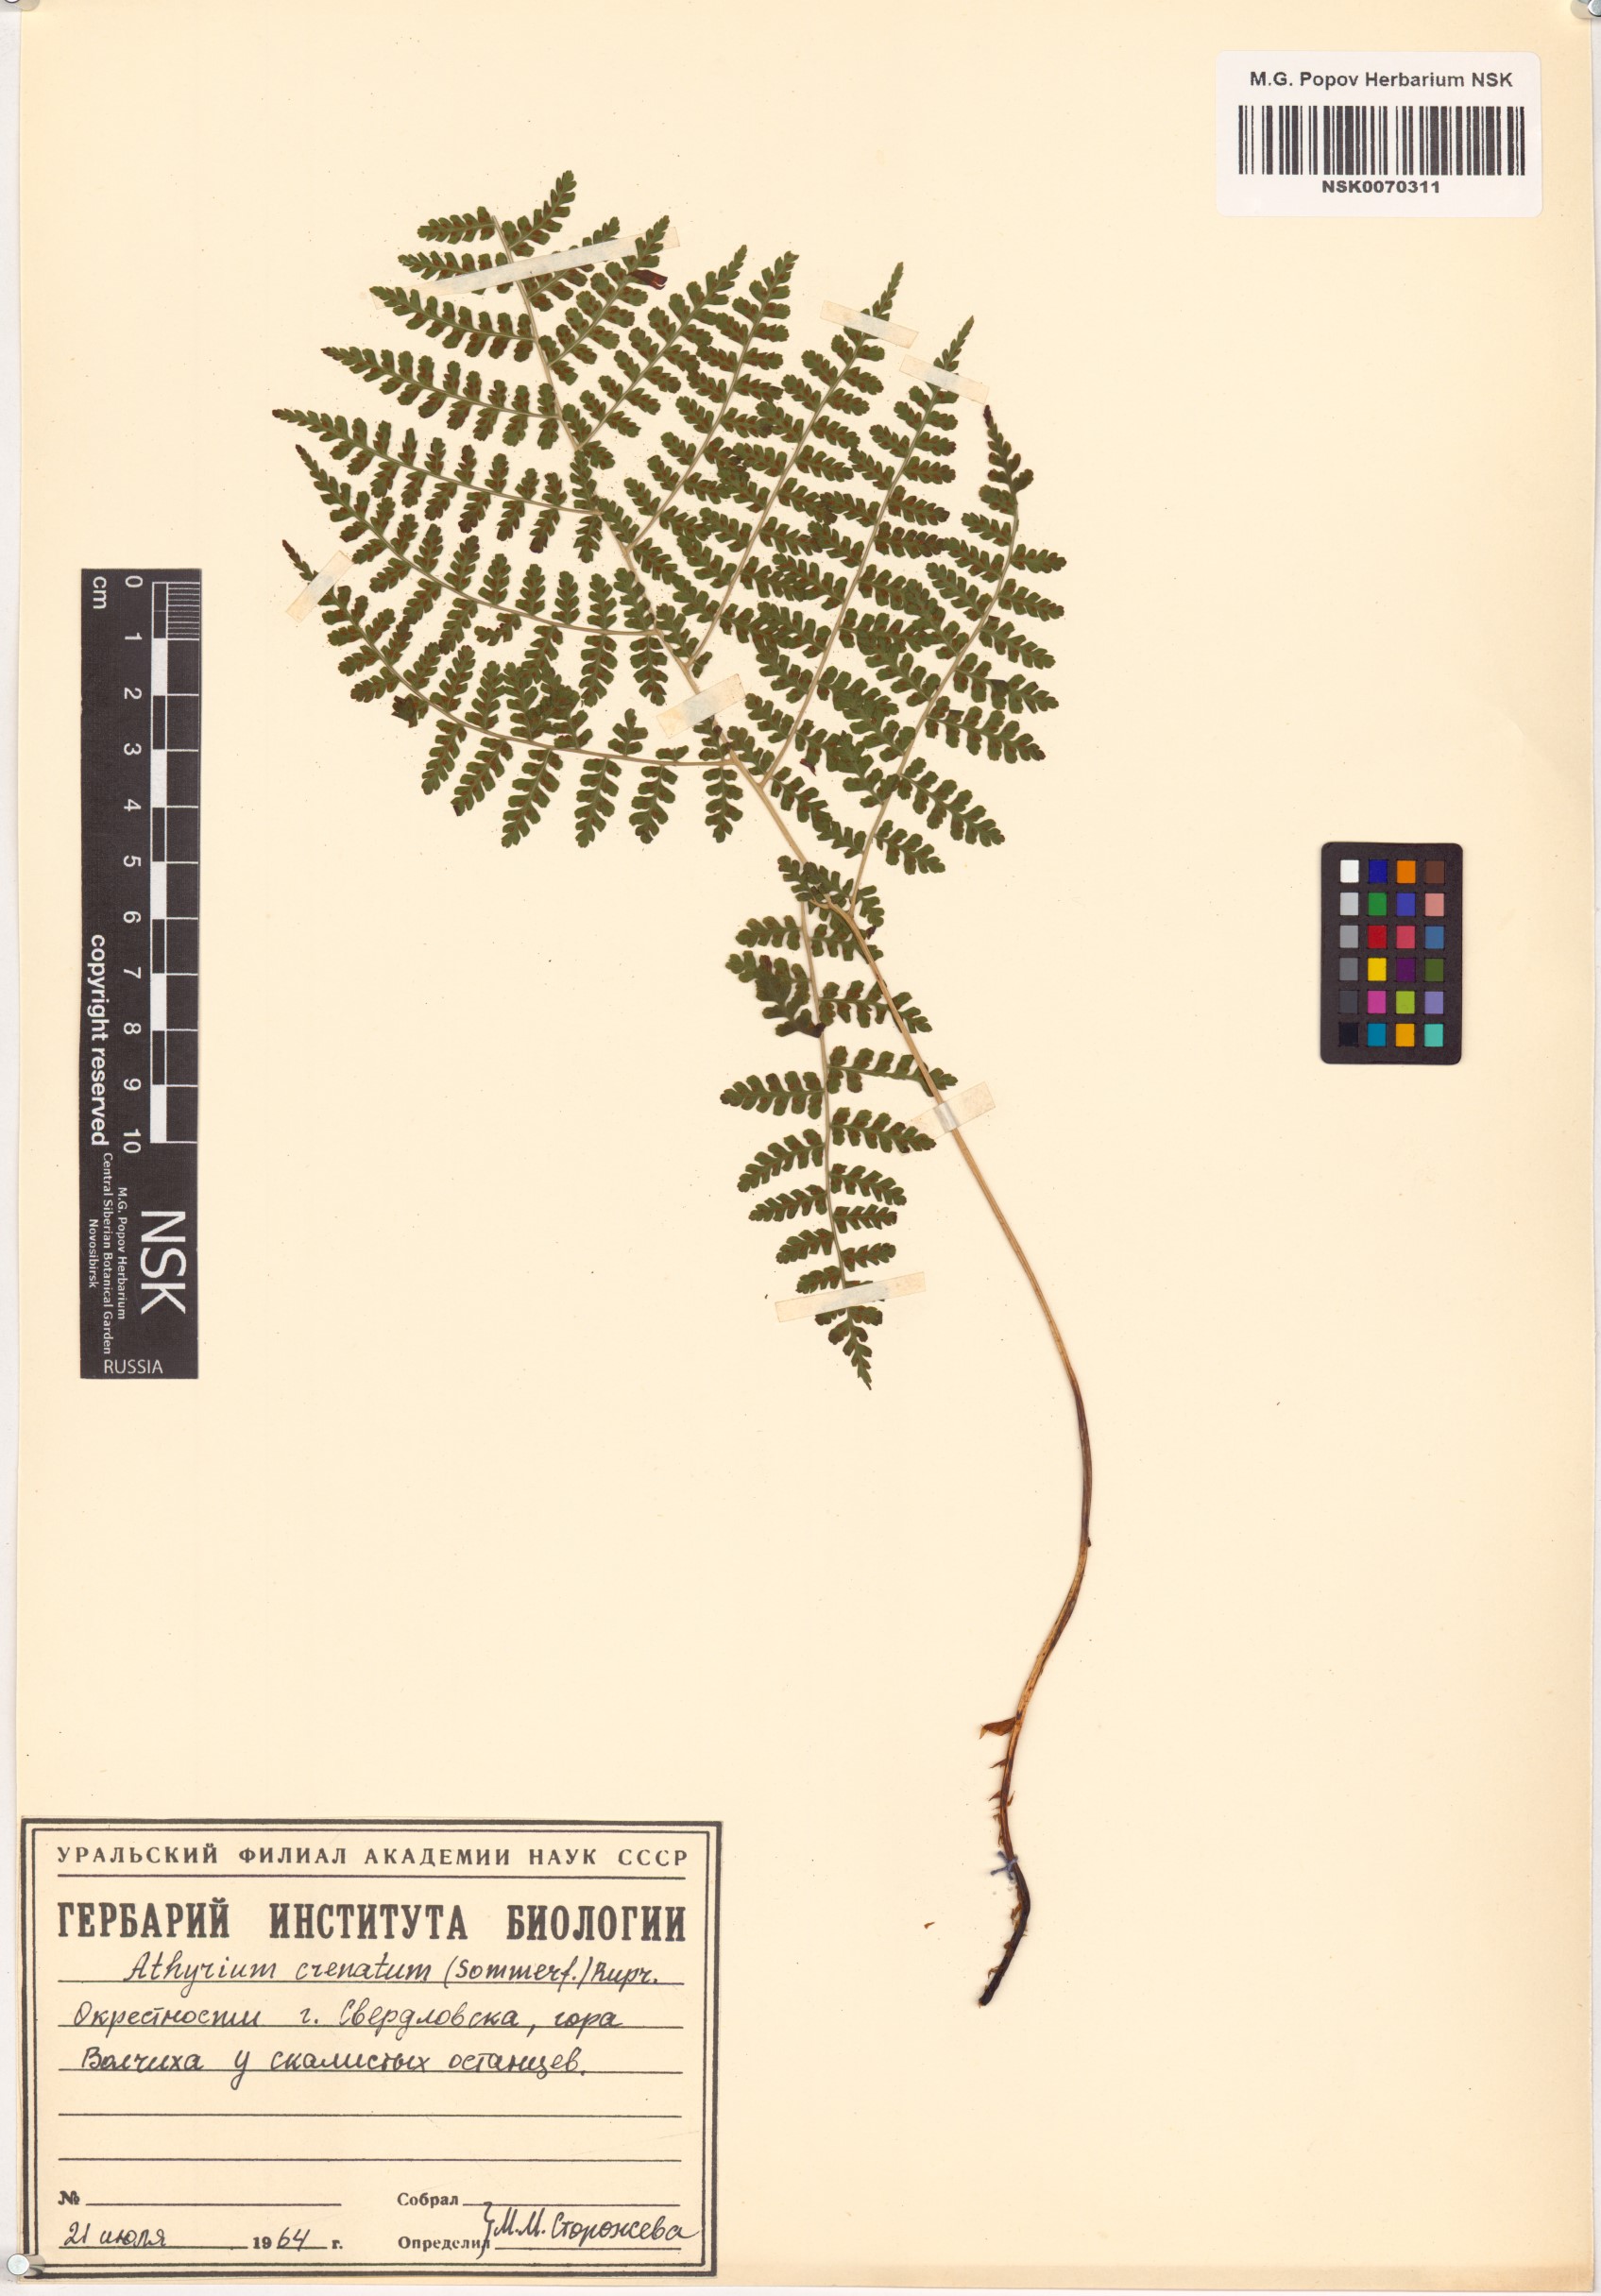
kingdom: Plantae
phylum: Tracheophyta
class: Polypodiopsida
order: Polypodiales
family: Athyriaceae
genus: Diplazium
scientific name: Diplazium sibiricum
